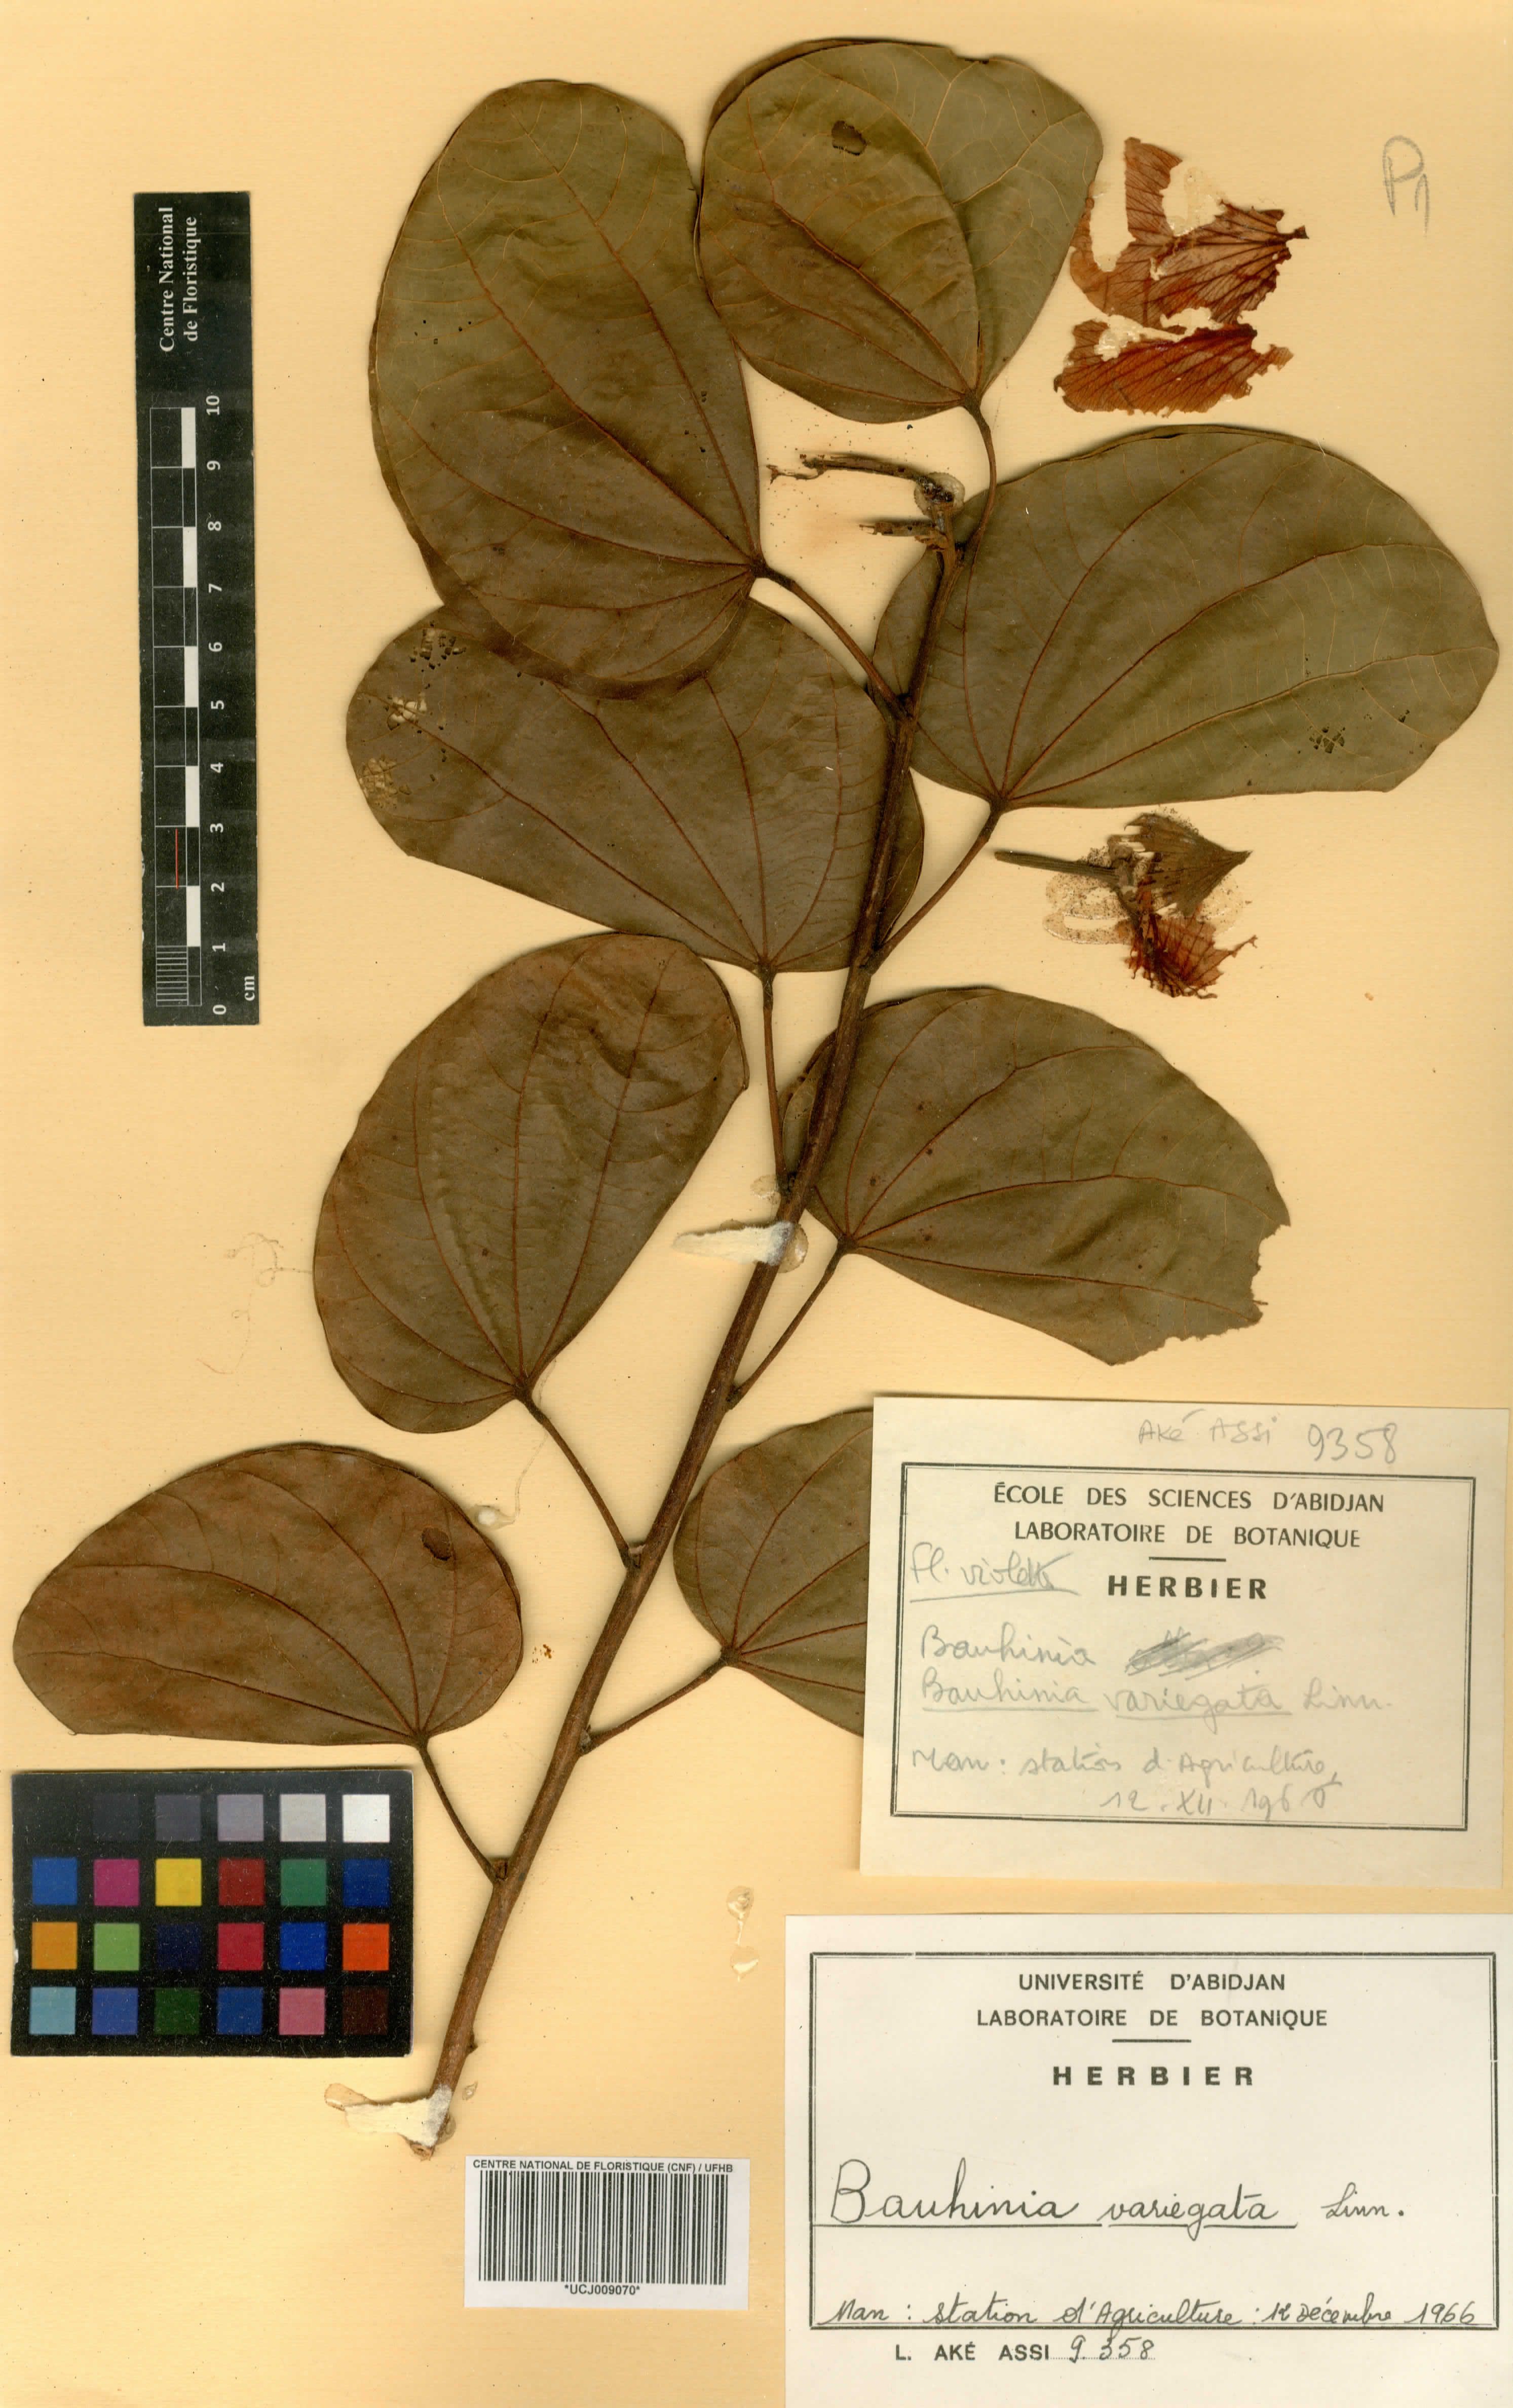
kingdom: Plantae
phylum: Tracheophyta
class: Magnoliopsida
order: Fabales
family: Fabaceae
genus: Bauhinia
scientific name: Bauhinia variegata
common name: Mountain ebony
